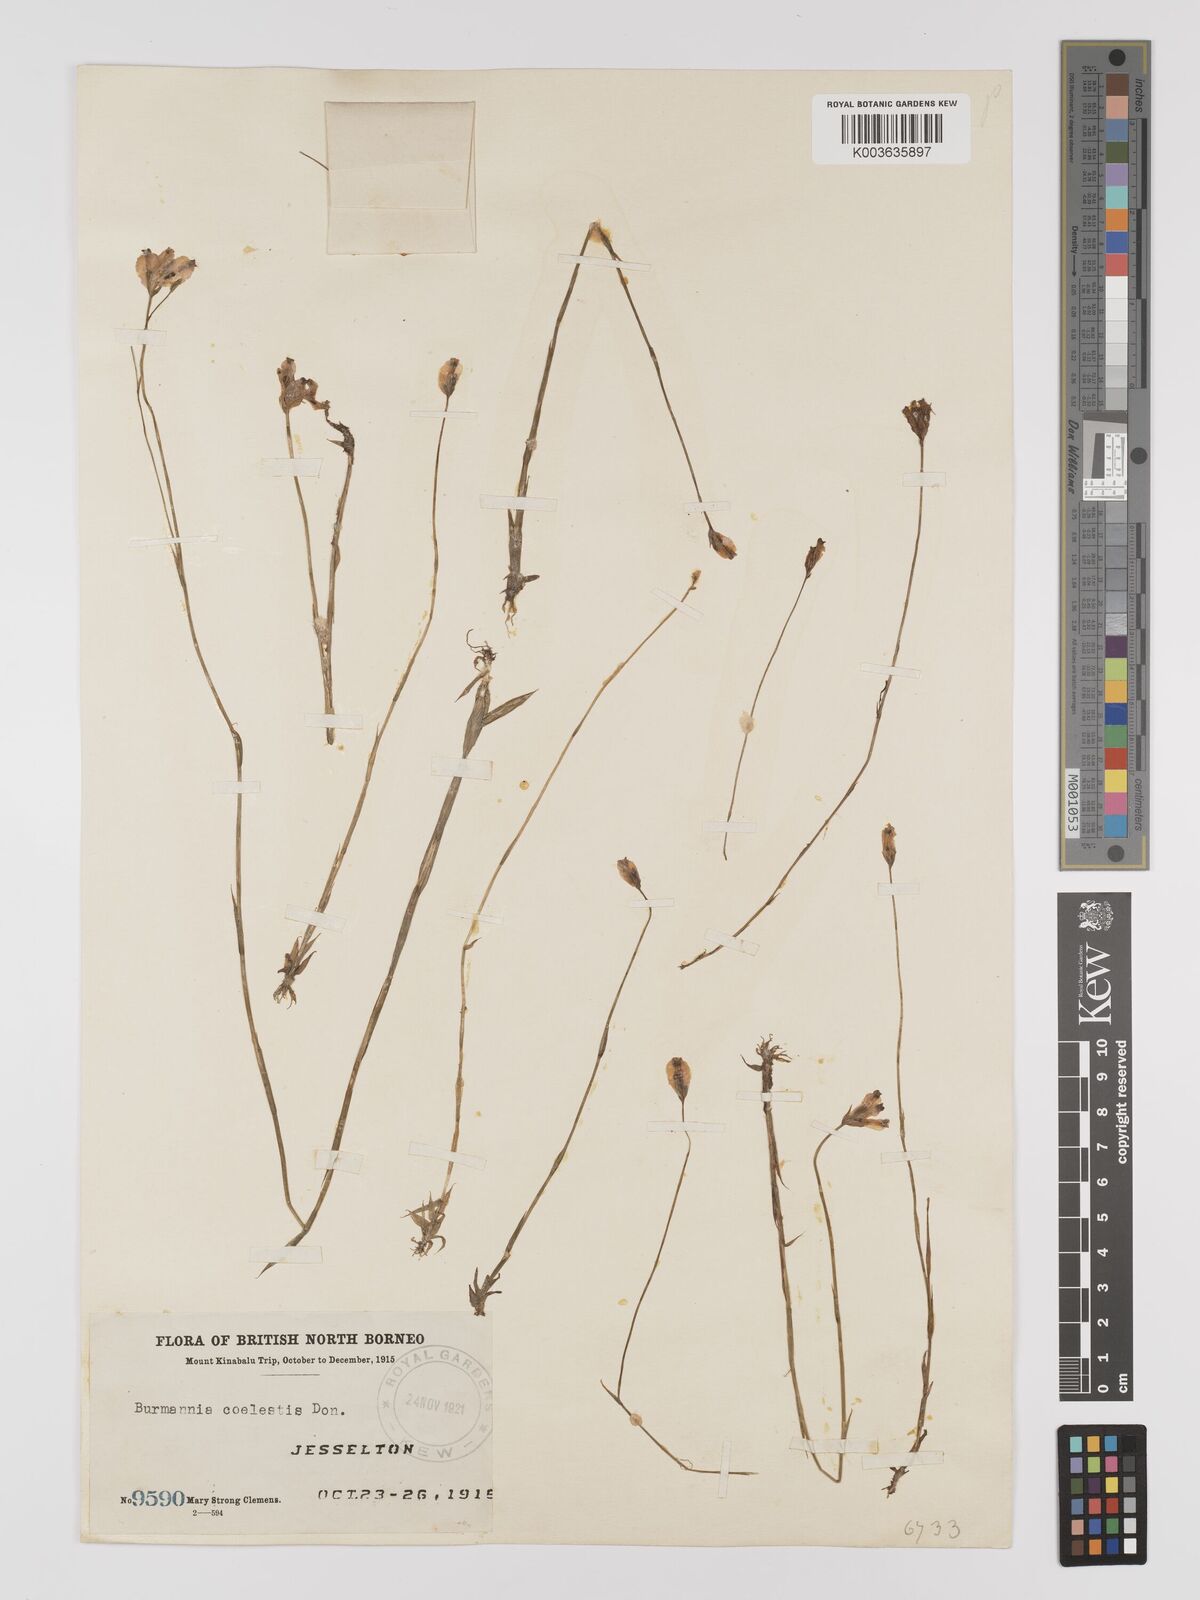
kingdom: Plantae
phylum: Tracheophyta
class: Liliopsida
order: Dioscoreales
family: Burmanniaceae
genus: Burmannia
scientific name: Burmannia coelestis
